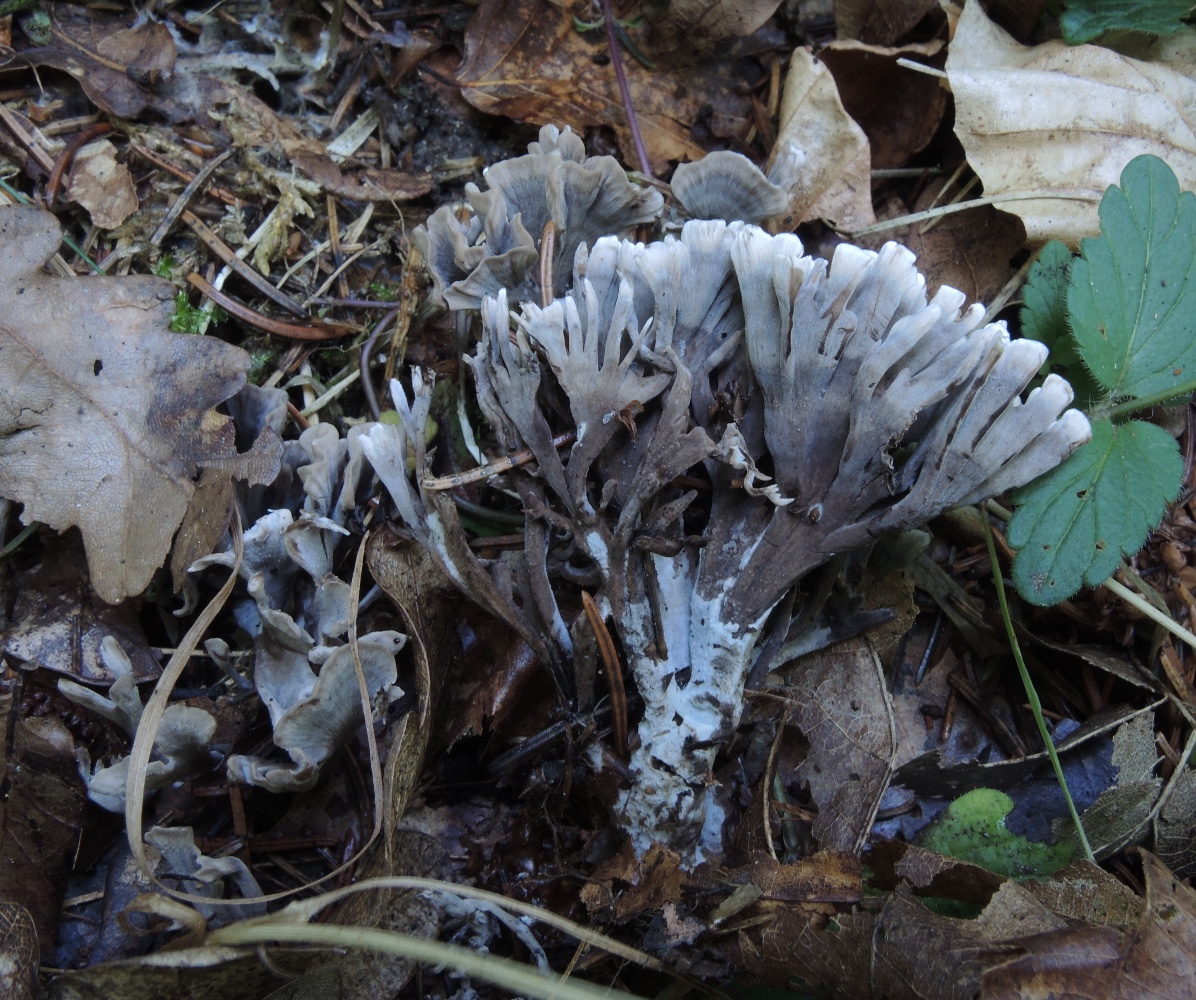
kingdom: Fungi
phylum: Basidiomycota
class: Agaricomycetes
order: Thelephorales
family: Thelephoraceae
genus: Thelephora
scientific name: Thelephora palmata
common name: grenet frynsesvamp
